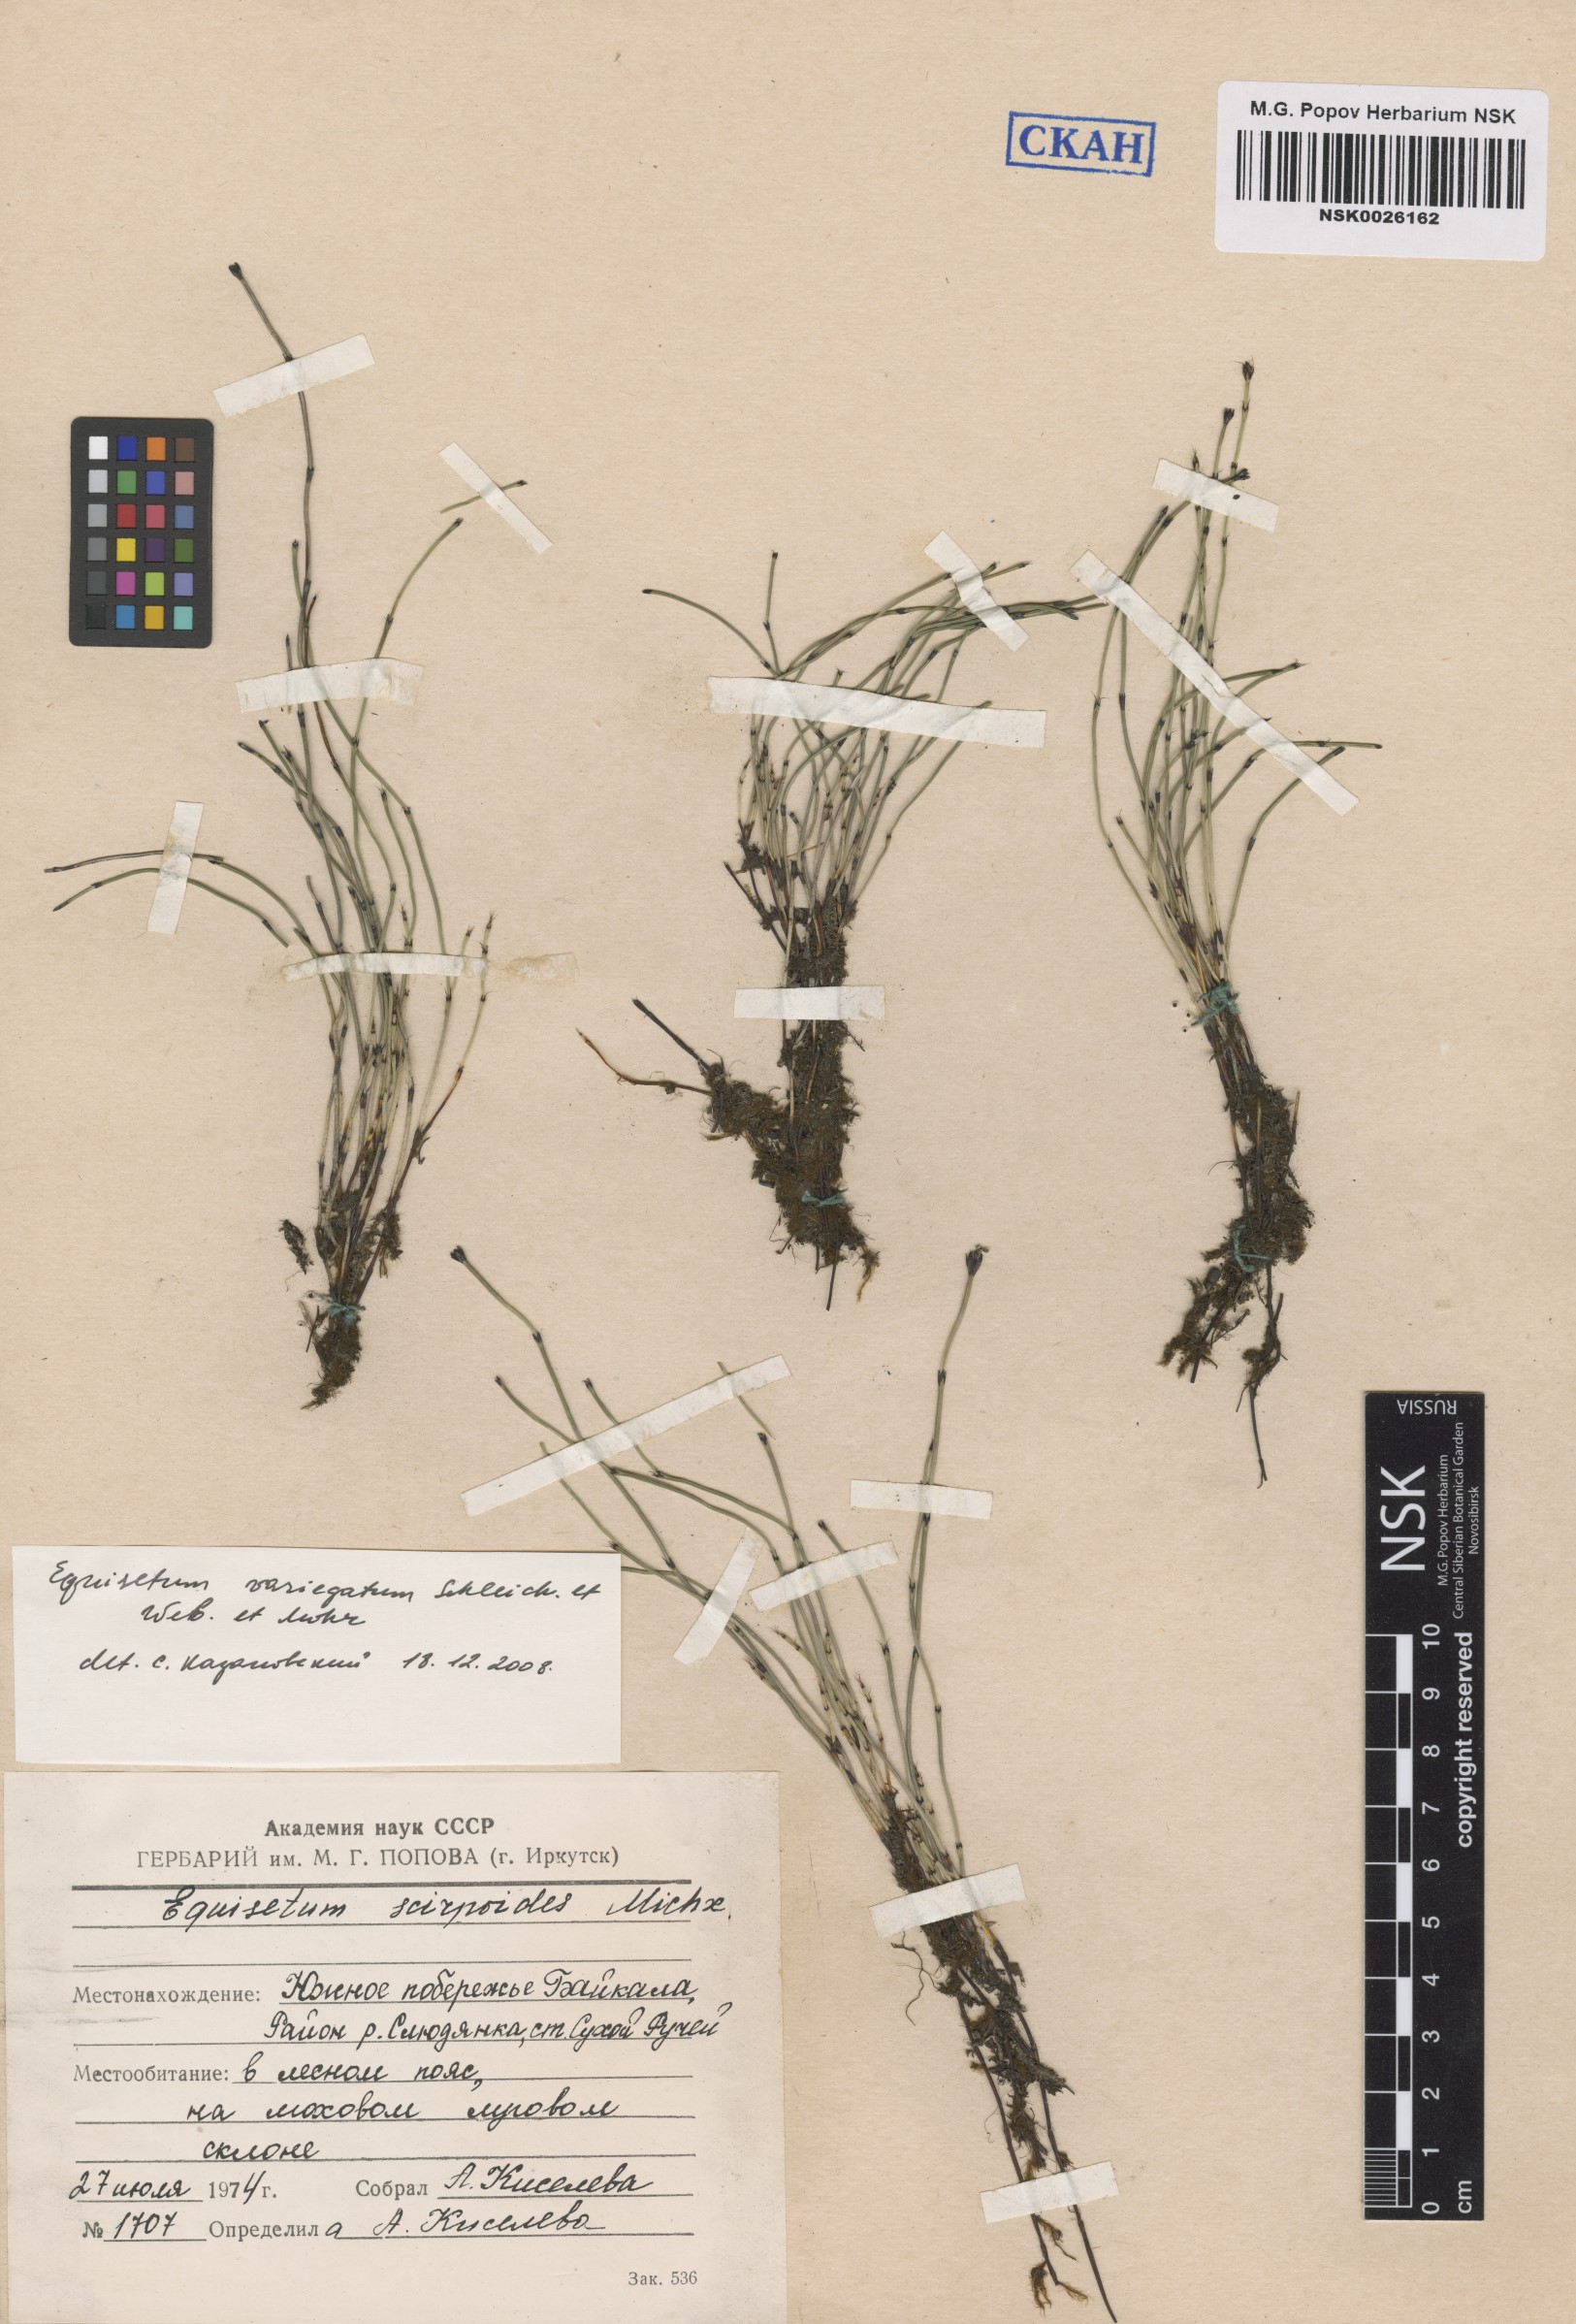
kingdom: Plantae
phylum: Tracheophyta
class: Polypodiopsida
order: Equisetales
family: Equisetaceae
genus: Equisetum
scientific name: Equisetum variegatum
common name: Variegated horsetail
